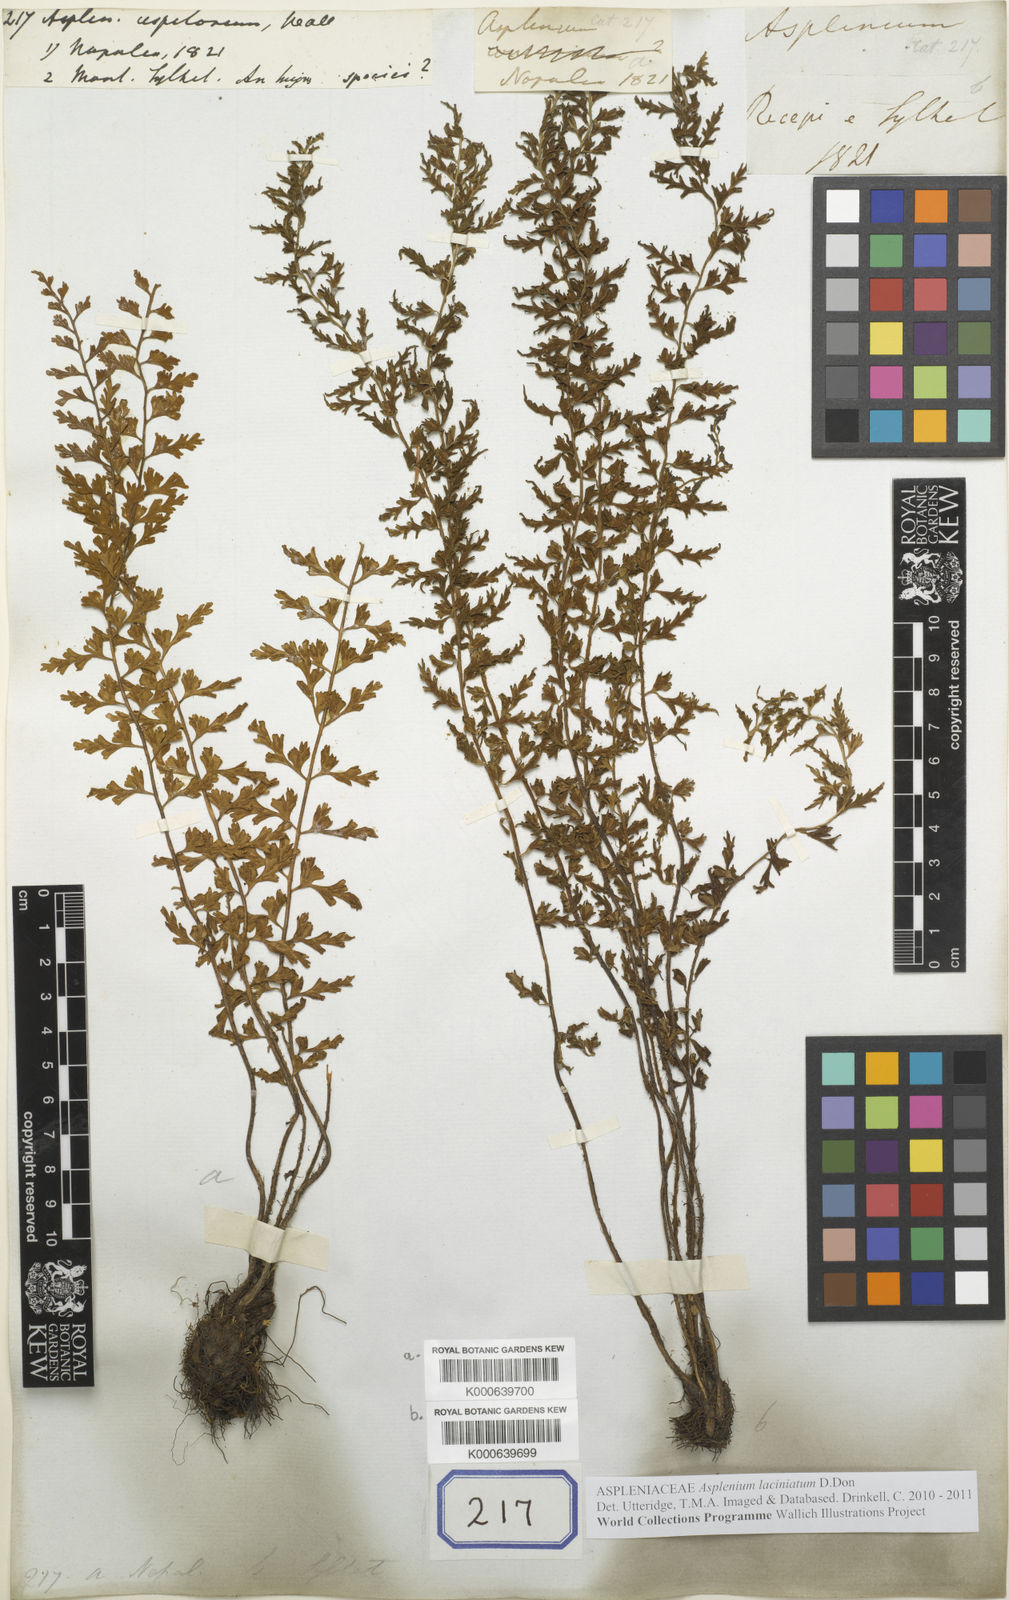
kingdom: Plantae
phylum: Tracheophyta
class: Polypodiopsida
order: Polypodiales
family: Aspleniaceae
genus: Asplenium
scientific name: Asplenium lacinioides
